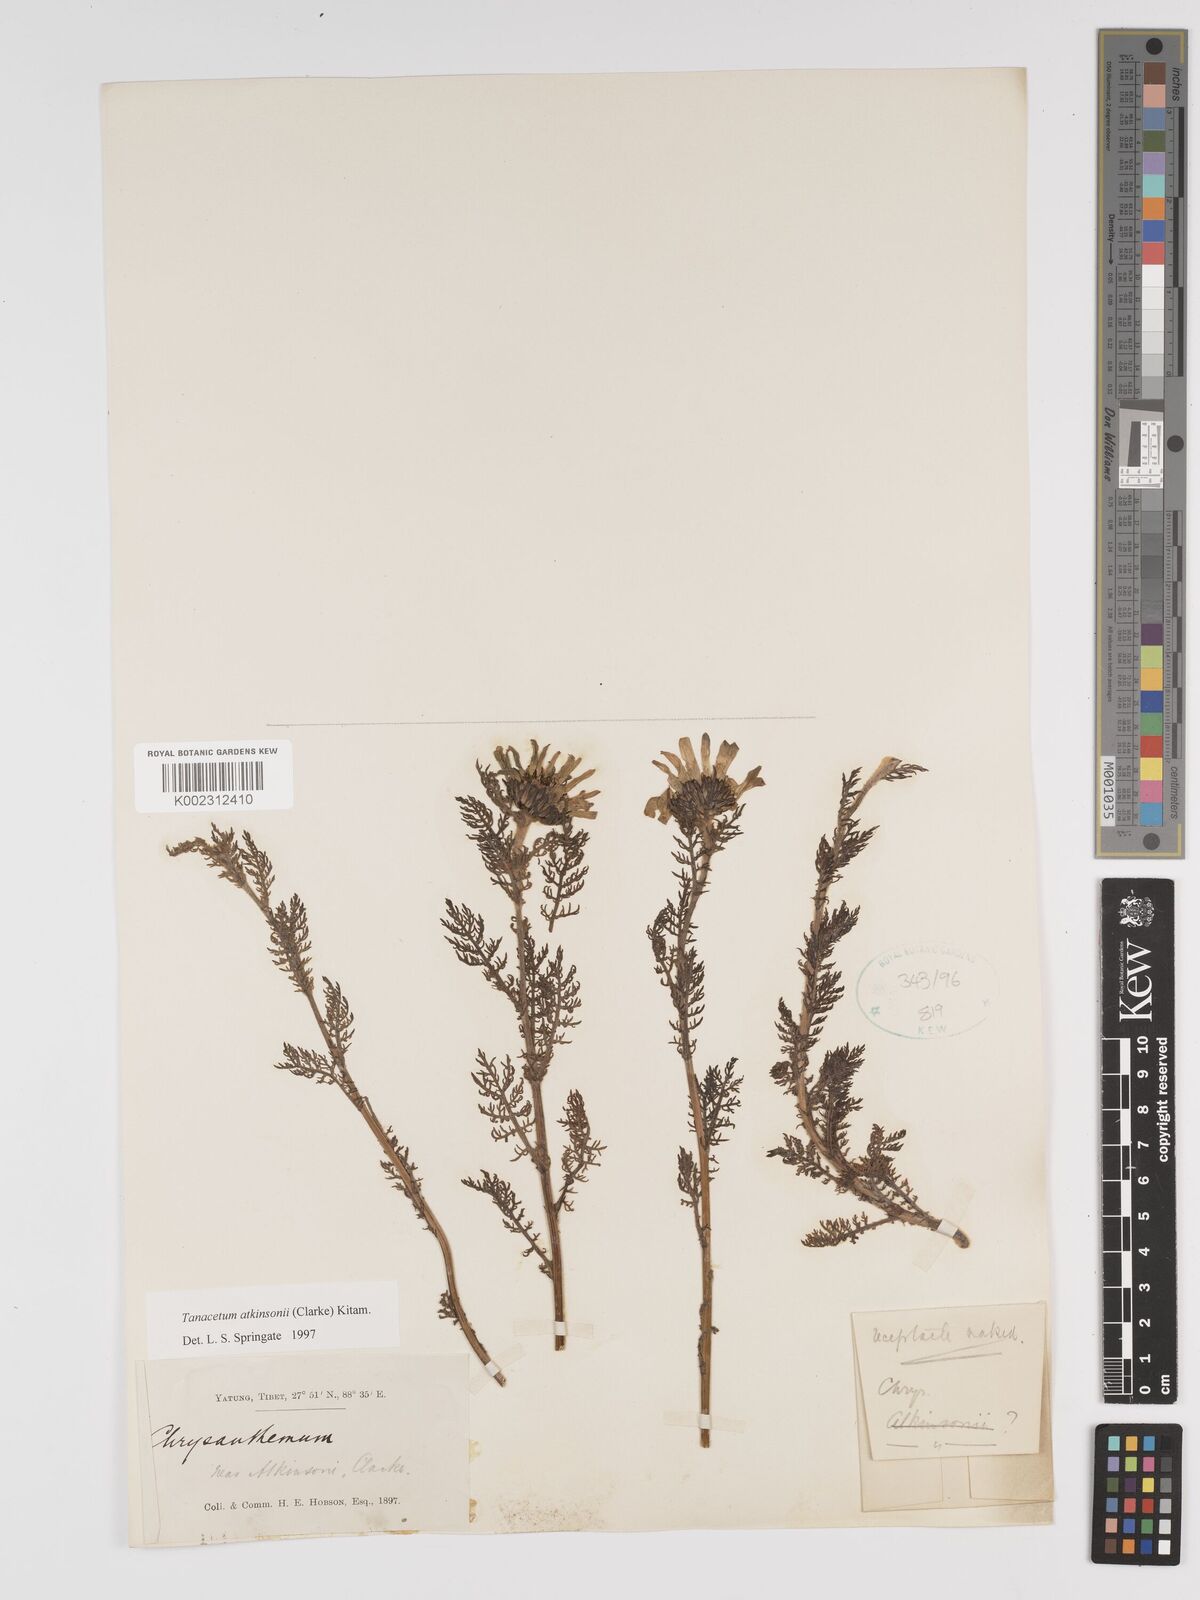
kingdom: Plantae
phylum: Tracheophyta
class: Magnoliopsida
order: Asterales
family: Asteraceae
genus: Tanacetum
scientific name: Tanacetum atkinsonii
